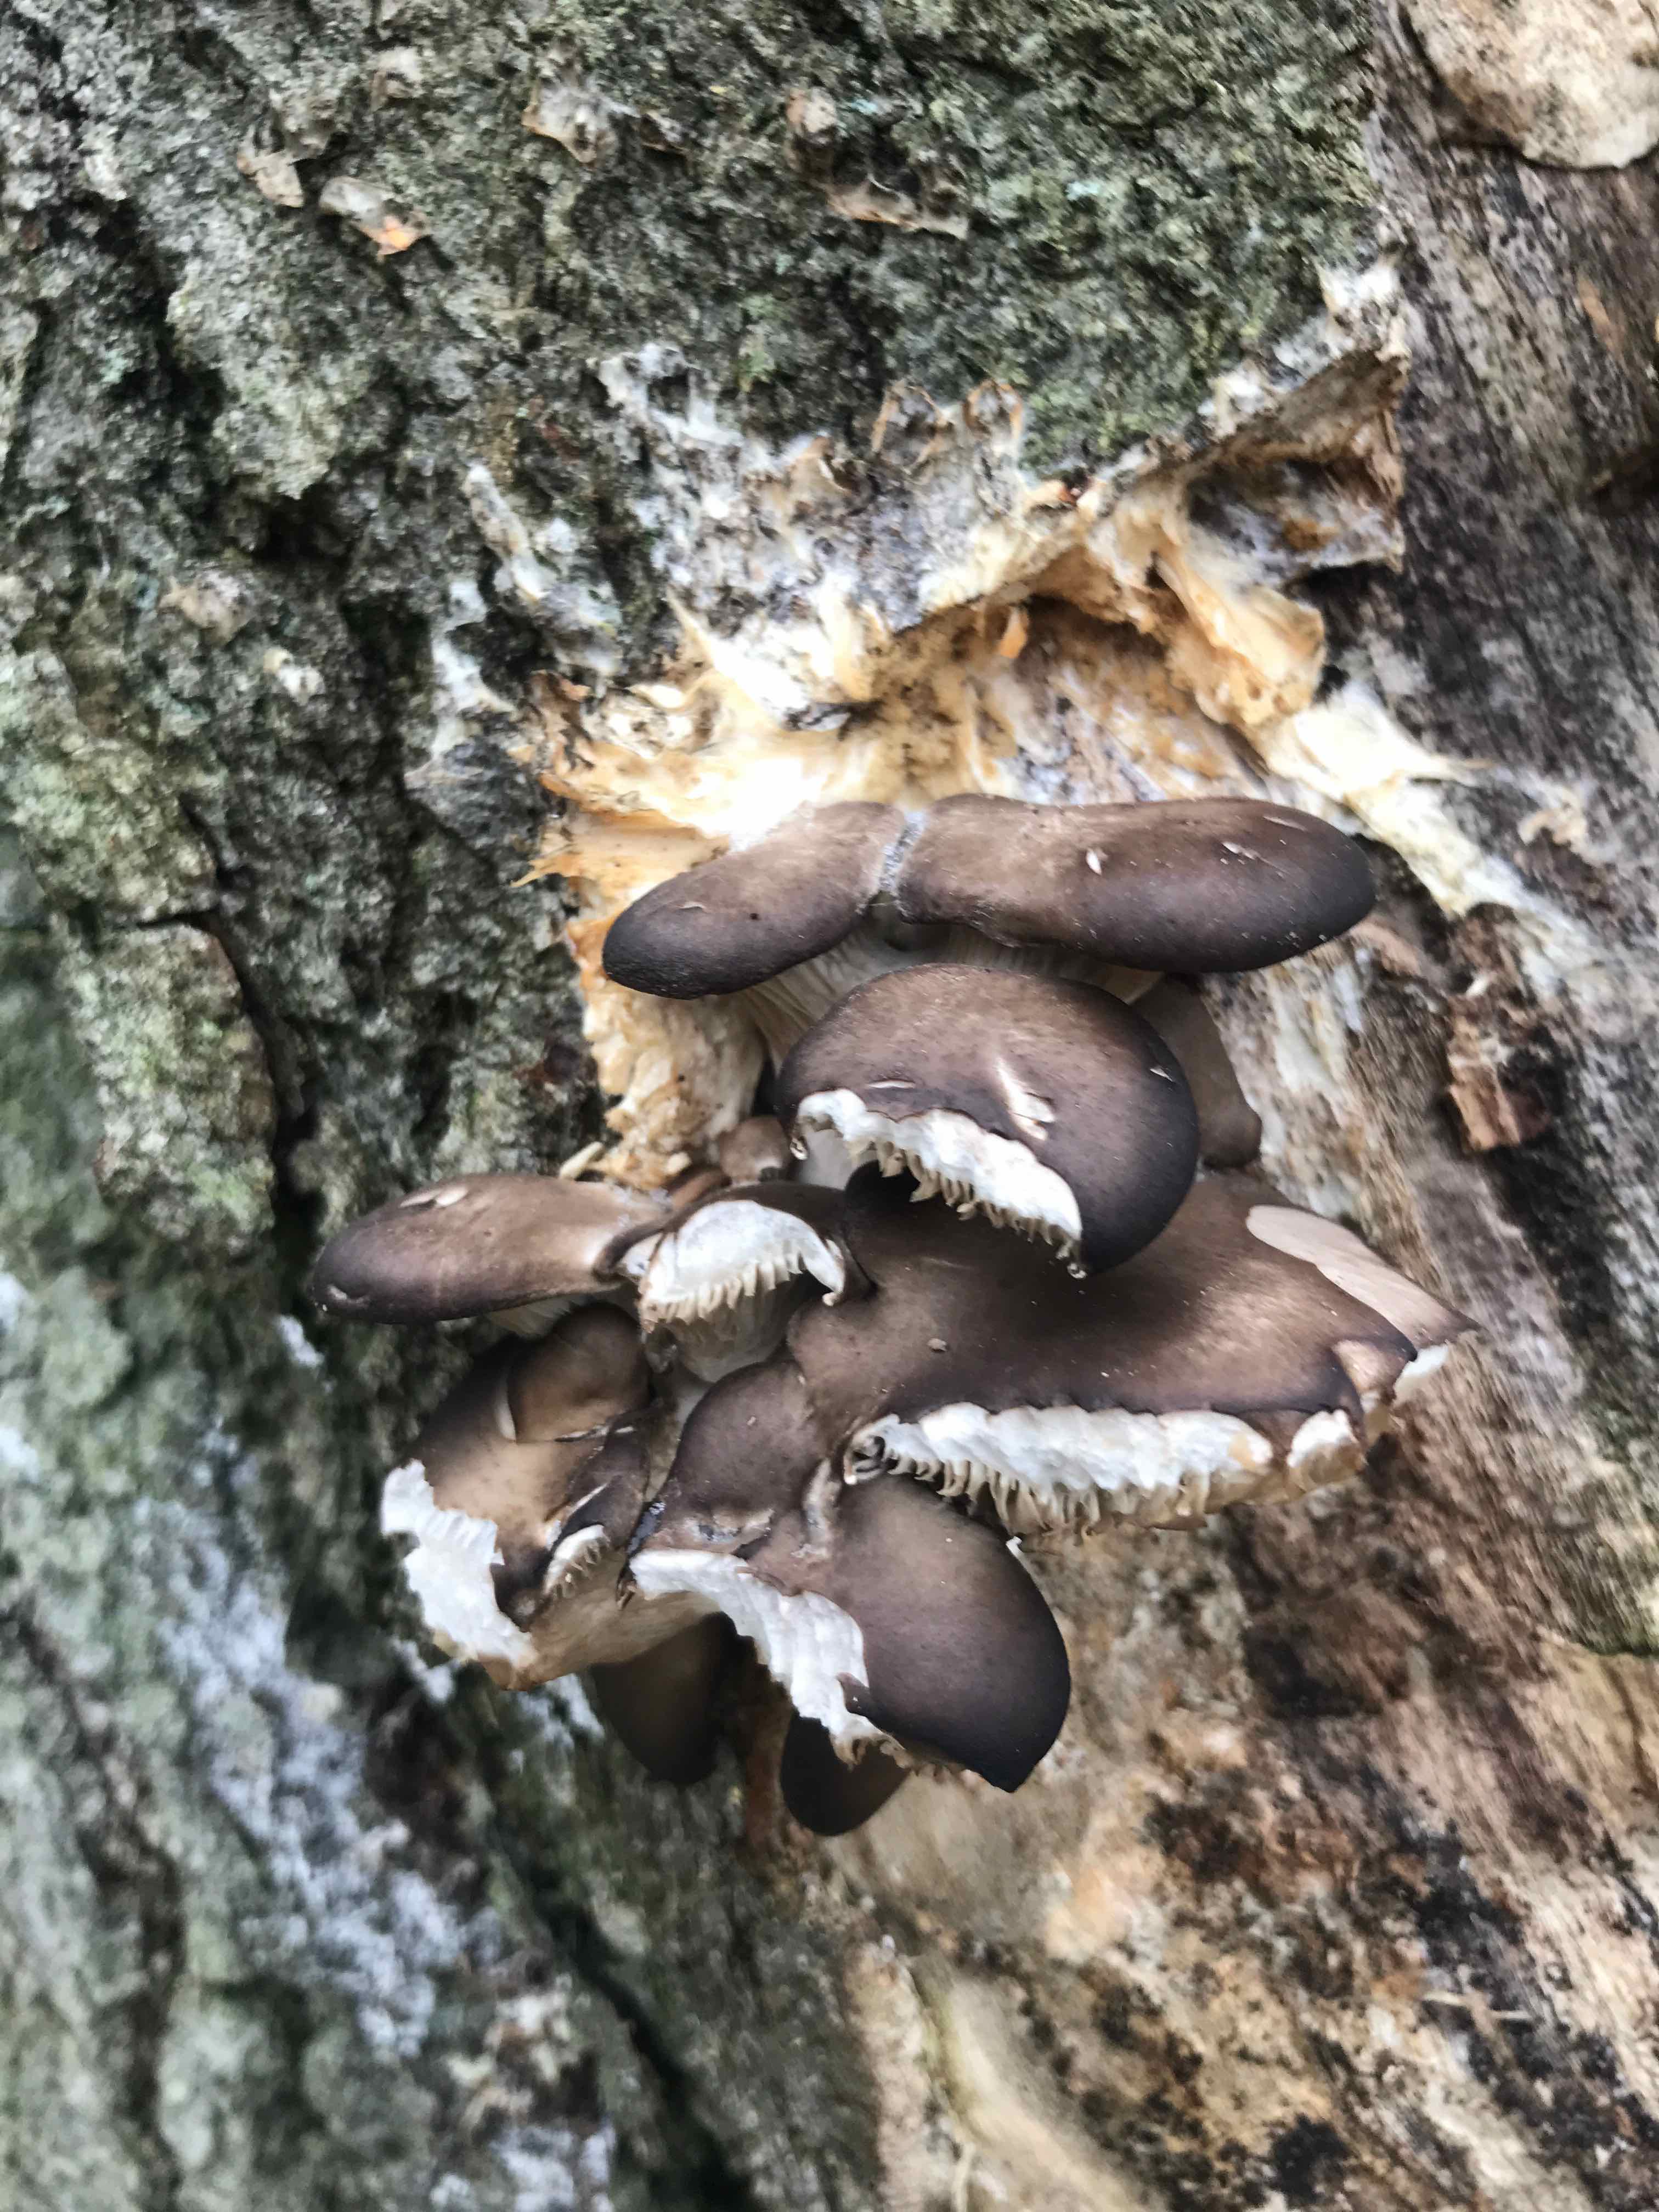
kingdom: Fungi
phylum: Basidiomycota
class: Agaricomycetes
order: Agaricales
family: Pleurotaceae
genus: Pleurotus
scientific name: Pleurotus ostreatus
